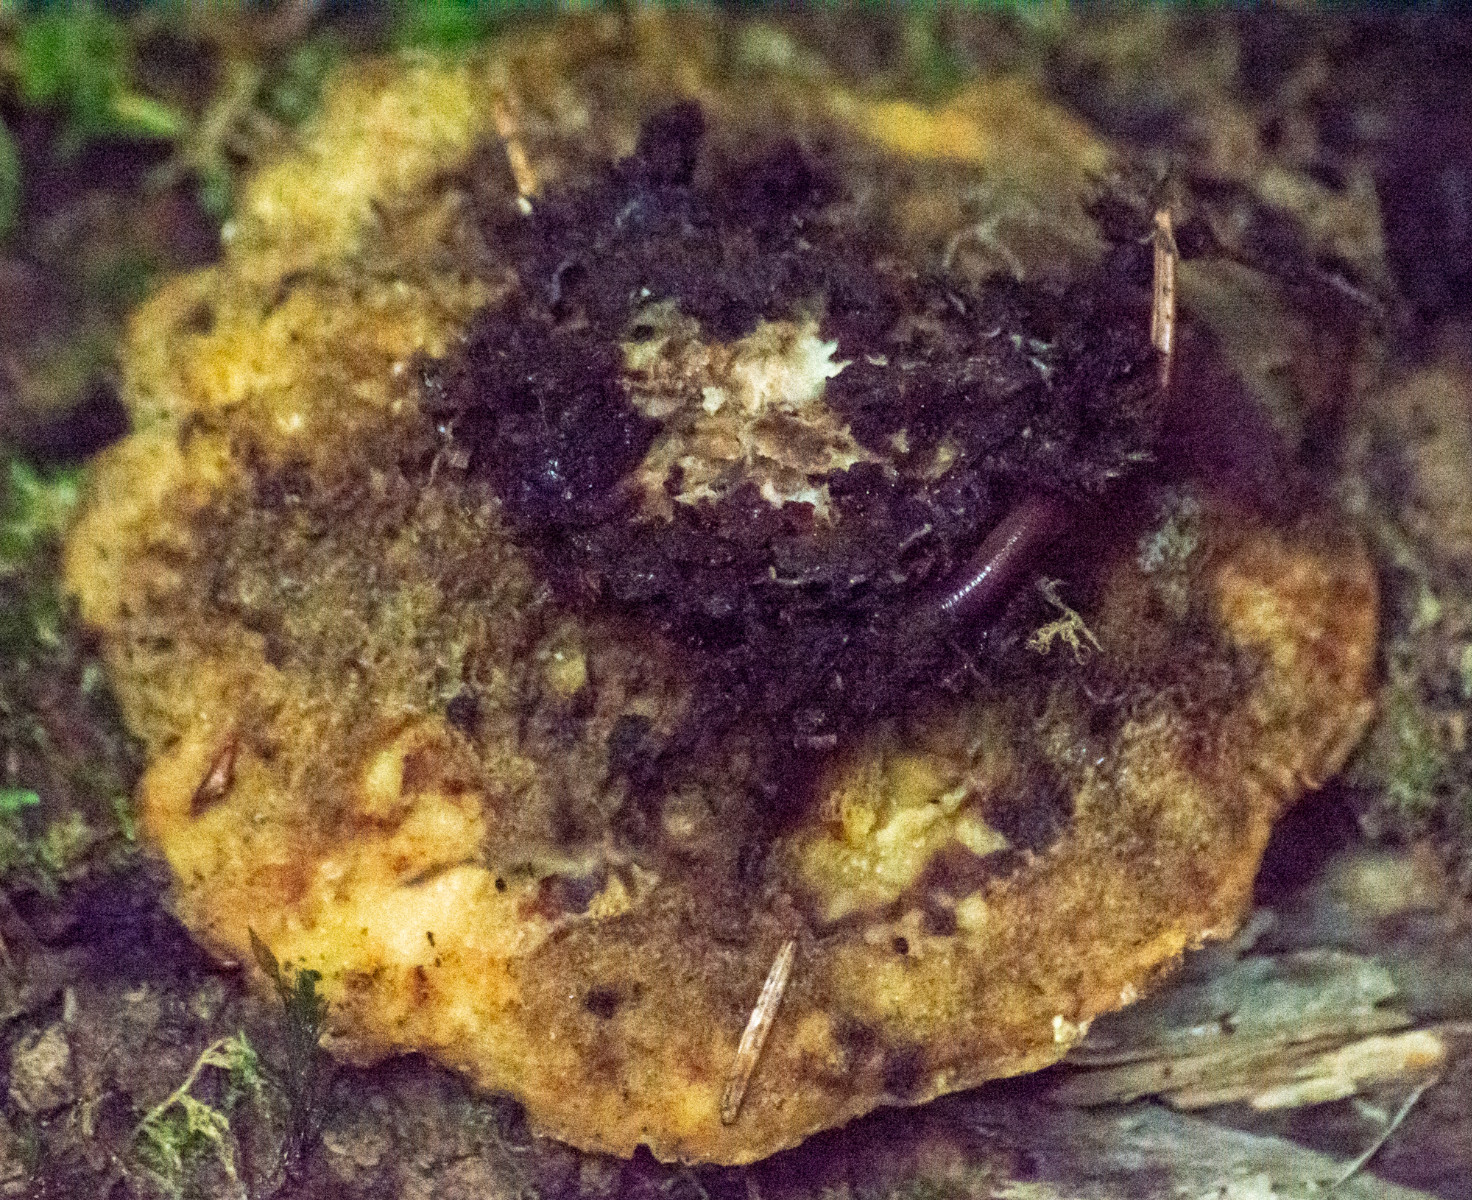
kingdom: Fungi
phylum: Basidiomycota
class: Agaricomycetes
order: Polyporales
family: Polyporaceae
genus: Trametes
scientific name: Trametes
